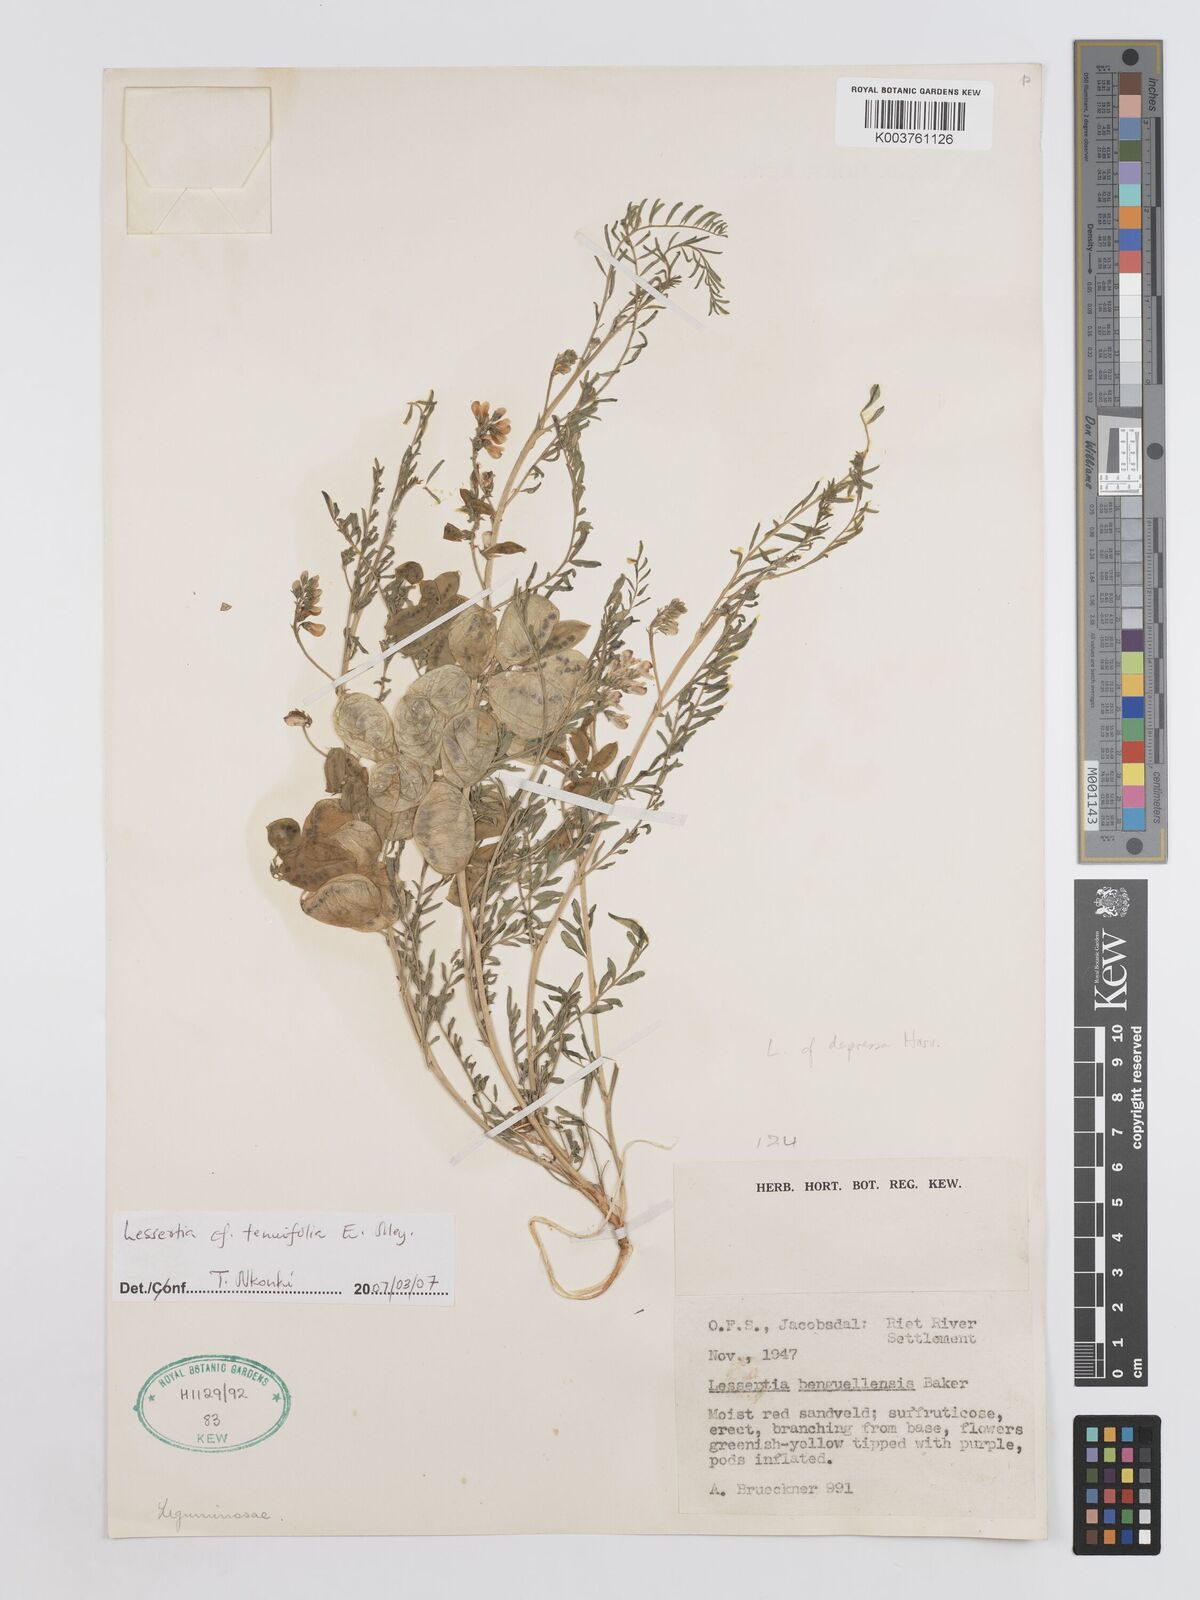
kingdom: Plantae
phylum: Tracheophyta
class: Magnoliopsida
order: Fabales
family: Fabaceae
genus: Lessertia
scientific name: Lessertia tenuifolia
